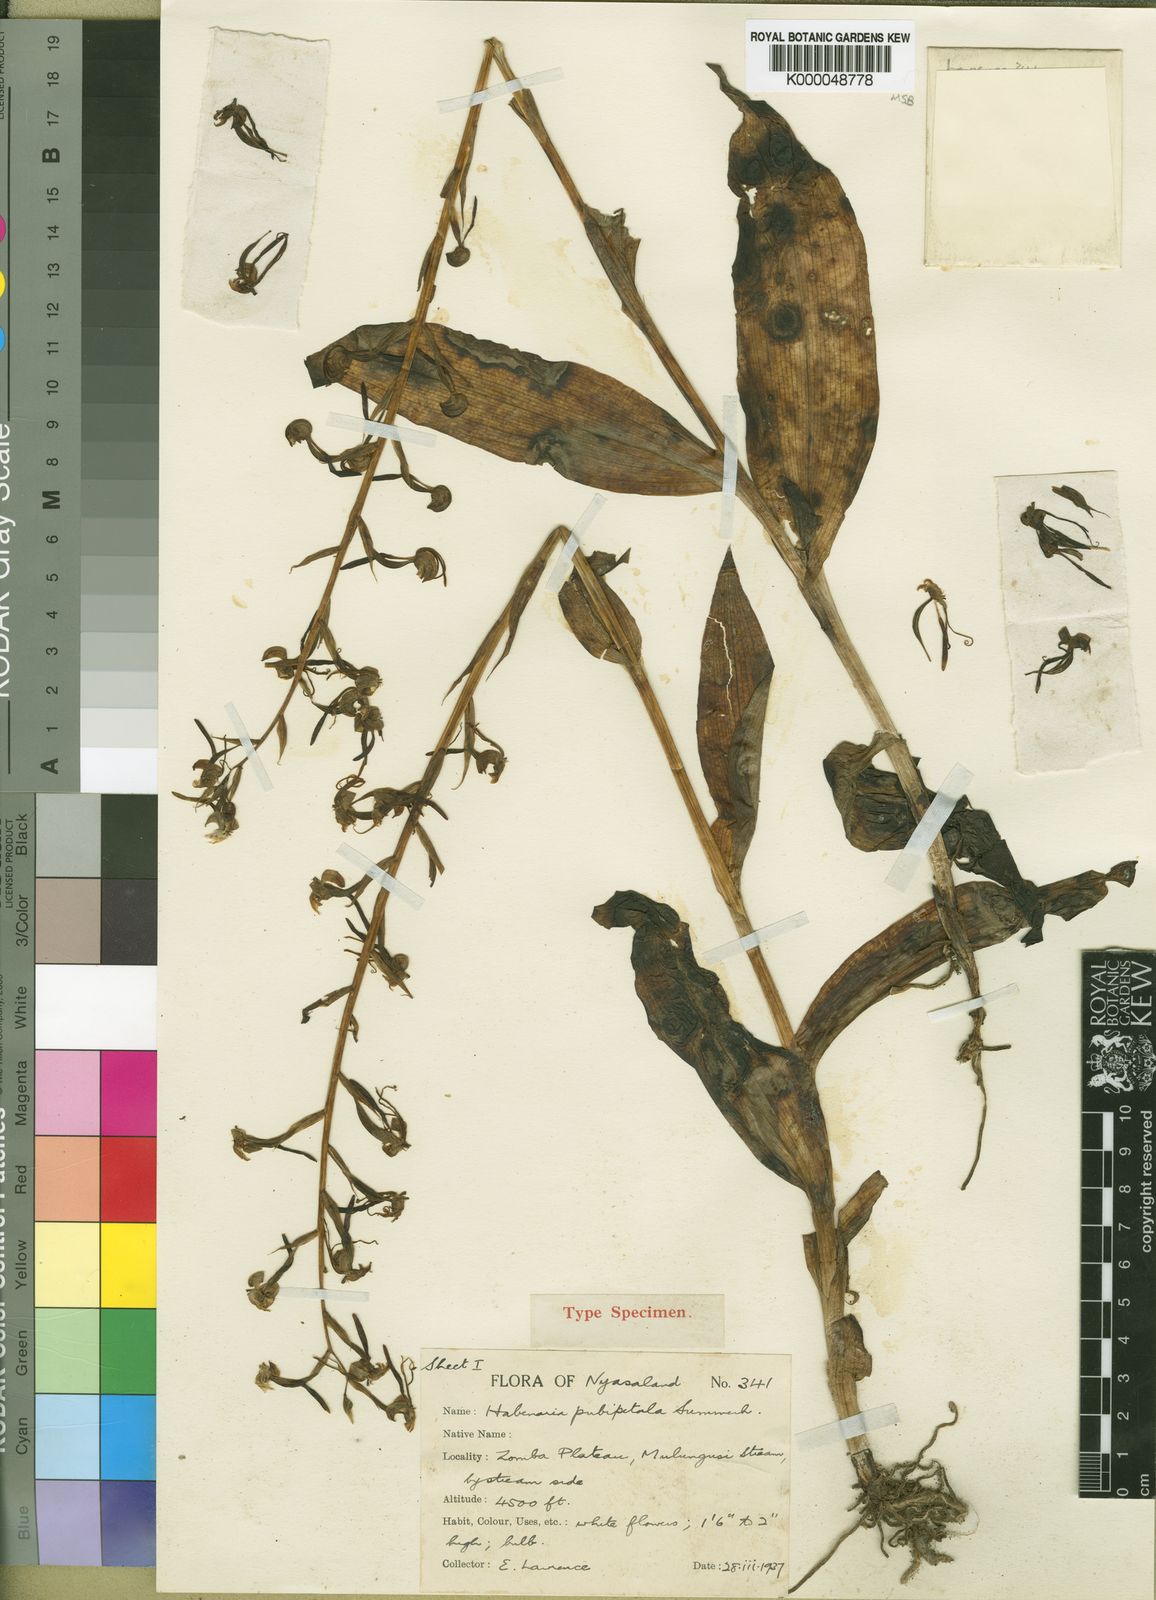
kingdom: Plantae
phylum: Tracheophyta
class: Liliopsida
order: Asparagales
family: Orchidaceae
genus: Habenaria
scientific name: Habenaria pubipetala
